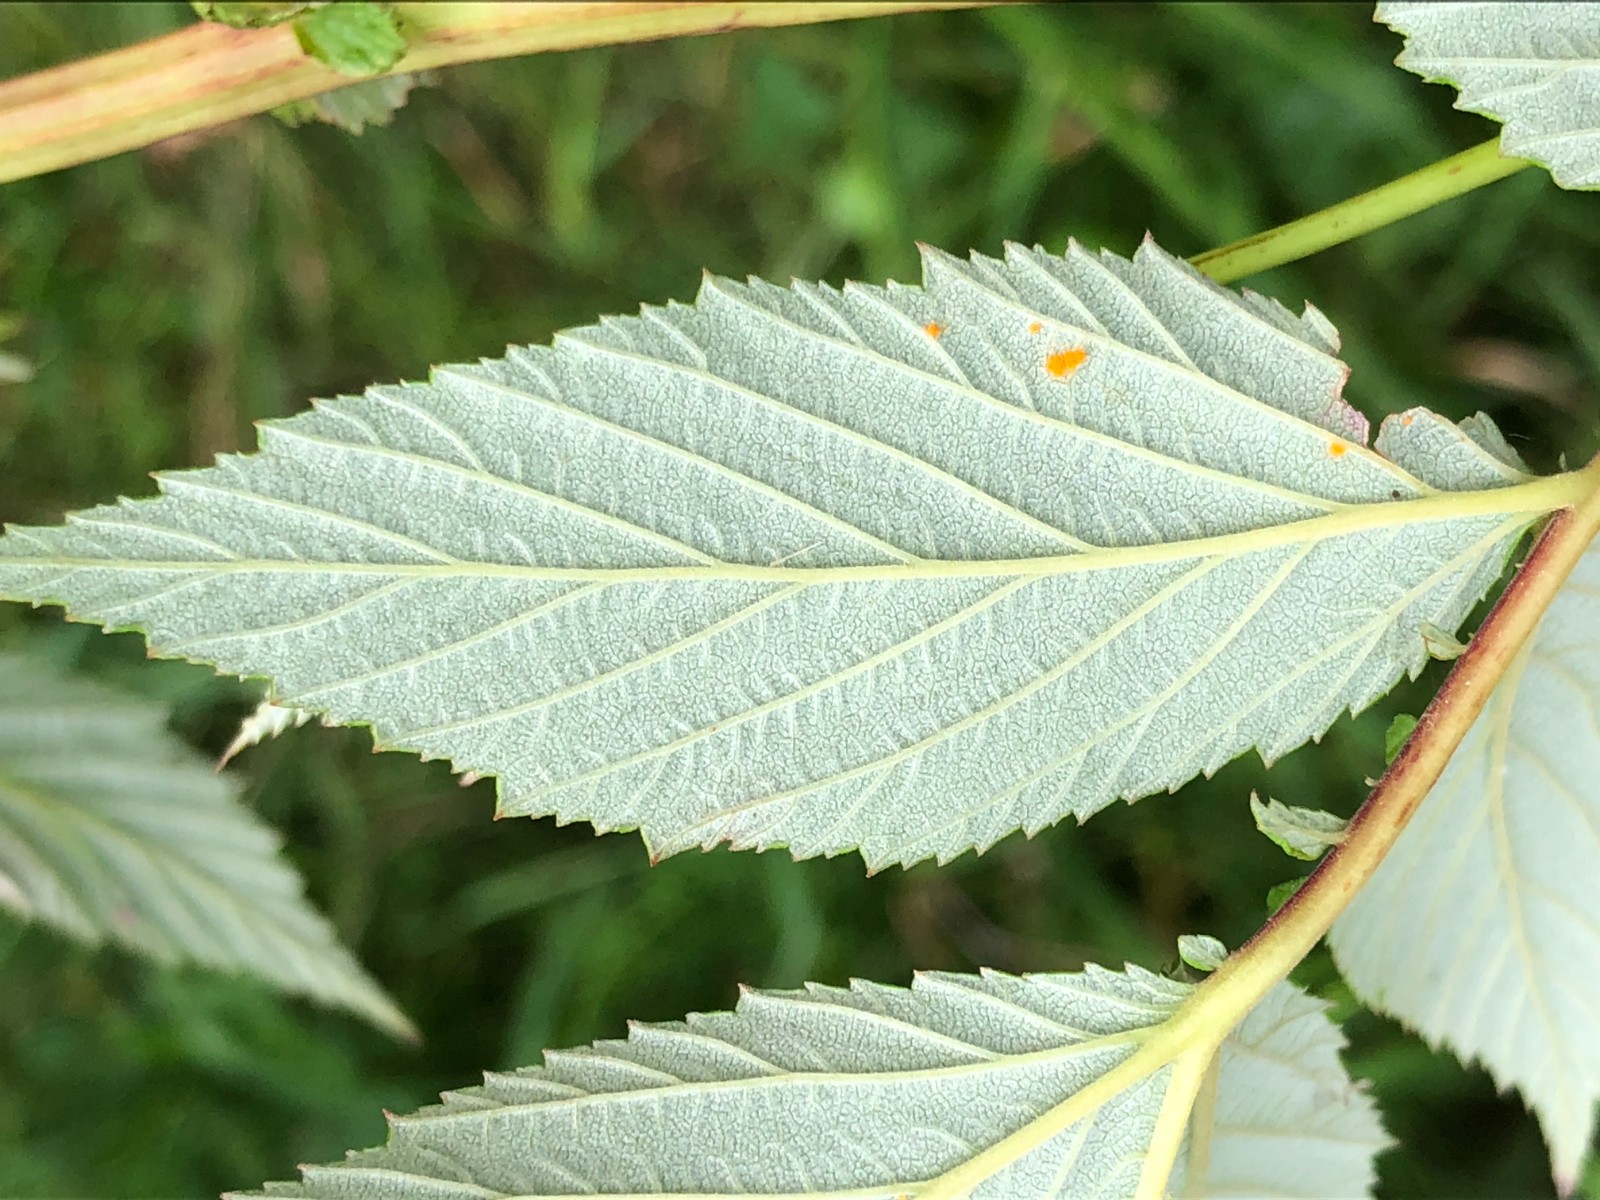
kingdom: Fungi
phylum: Basidiomycota
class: Pucciniomycetes
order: Pucciniales
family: Raveneliaceae
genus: Triphragmium
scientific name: Triphragmium ulmariae
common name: almindelig mjødurtrust
